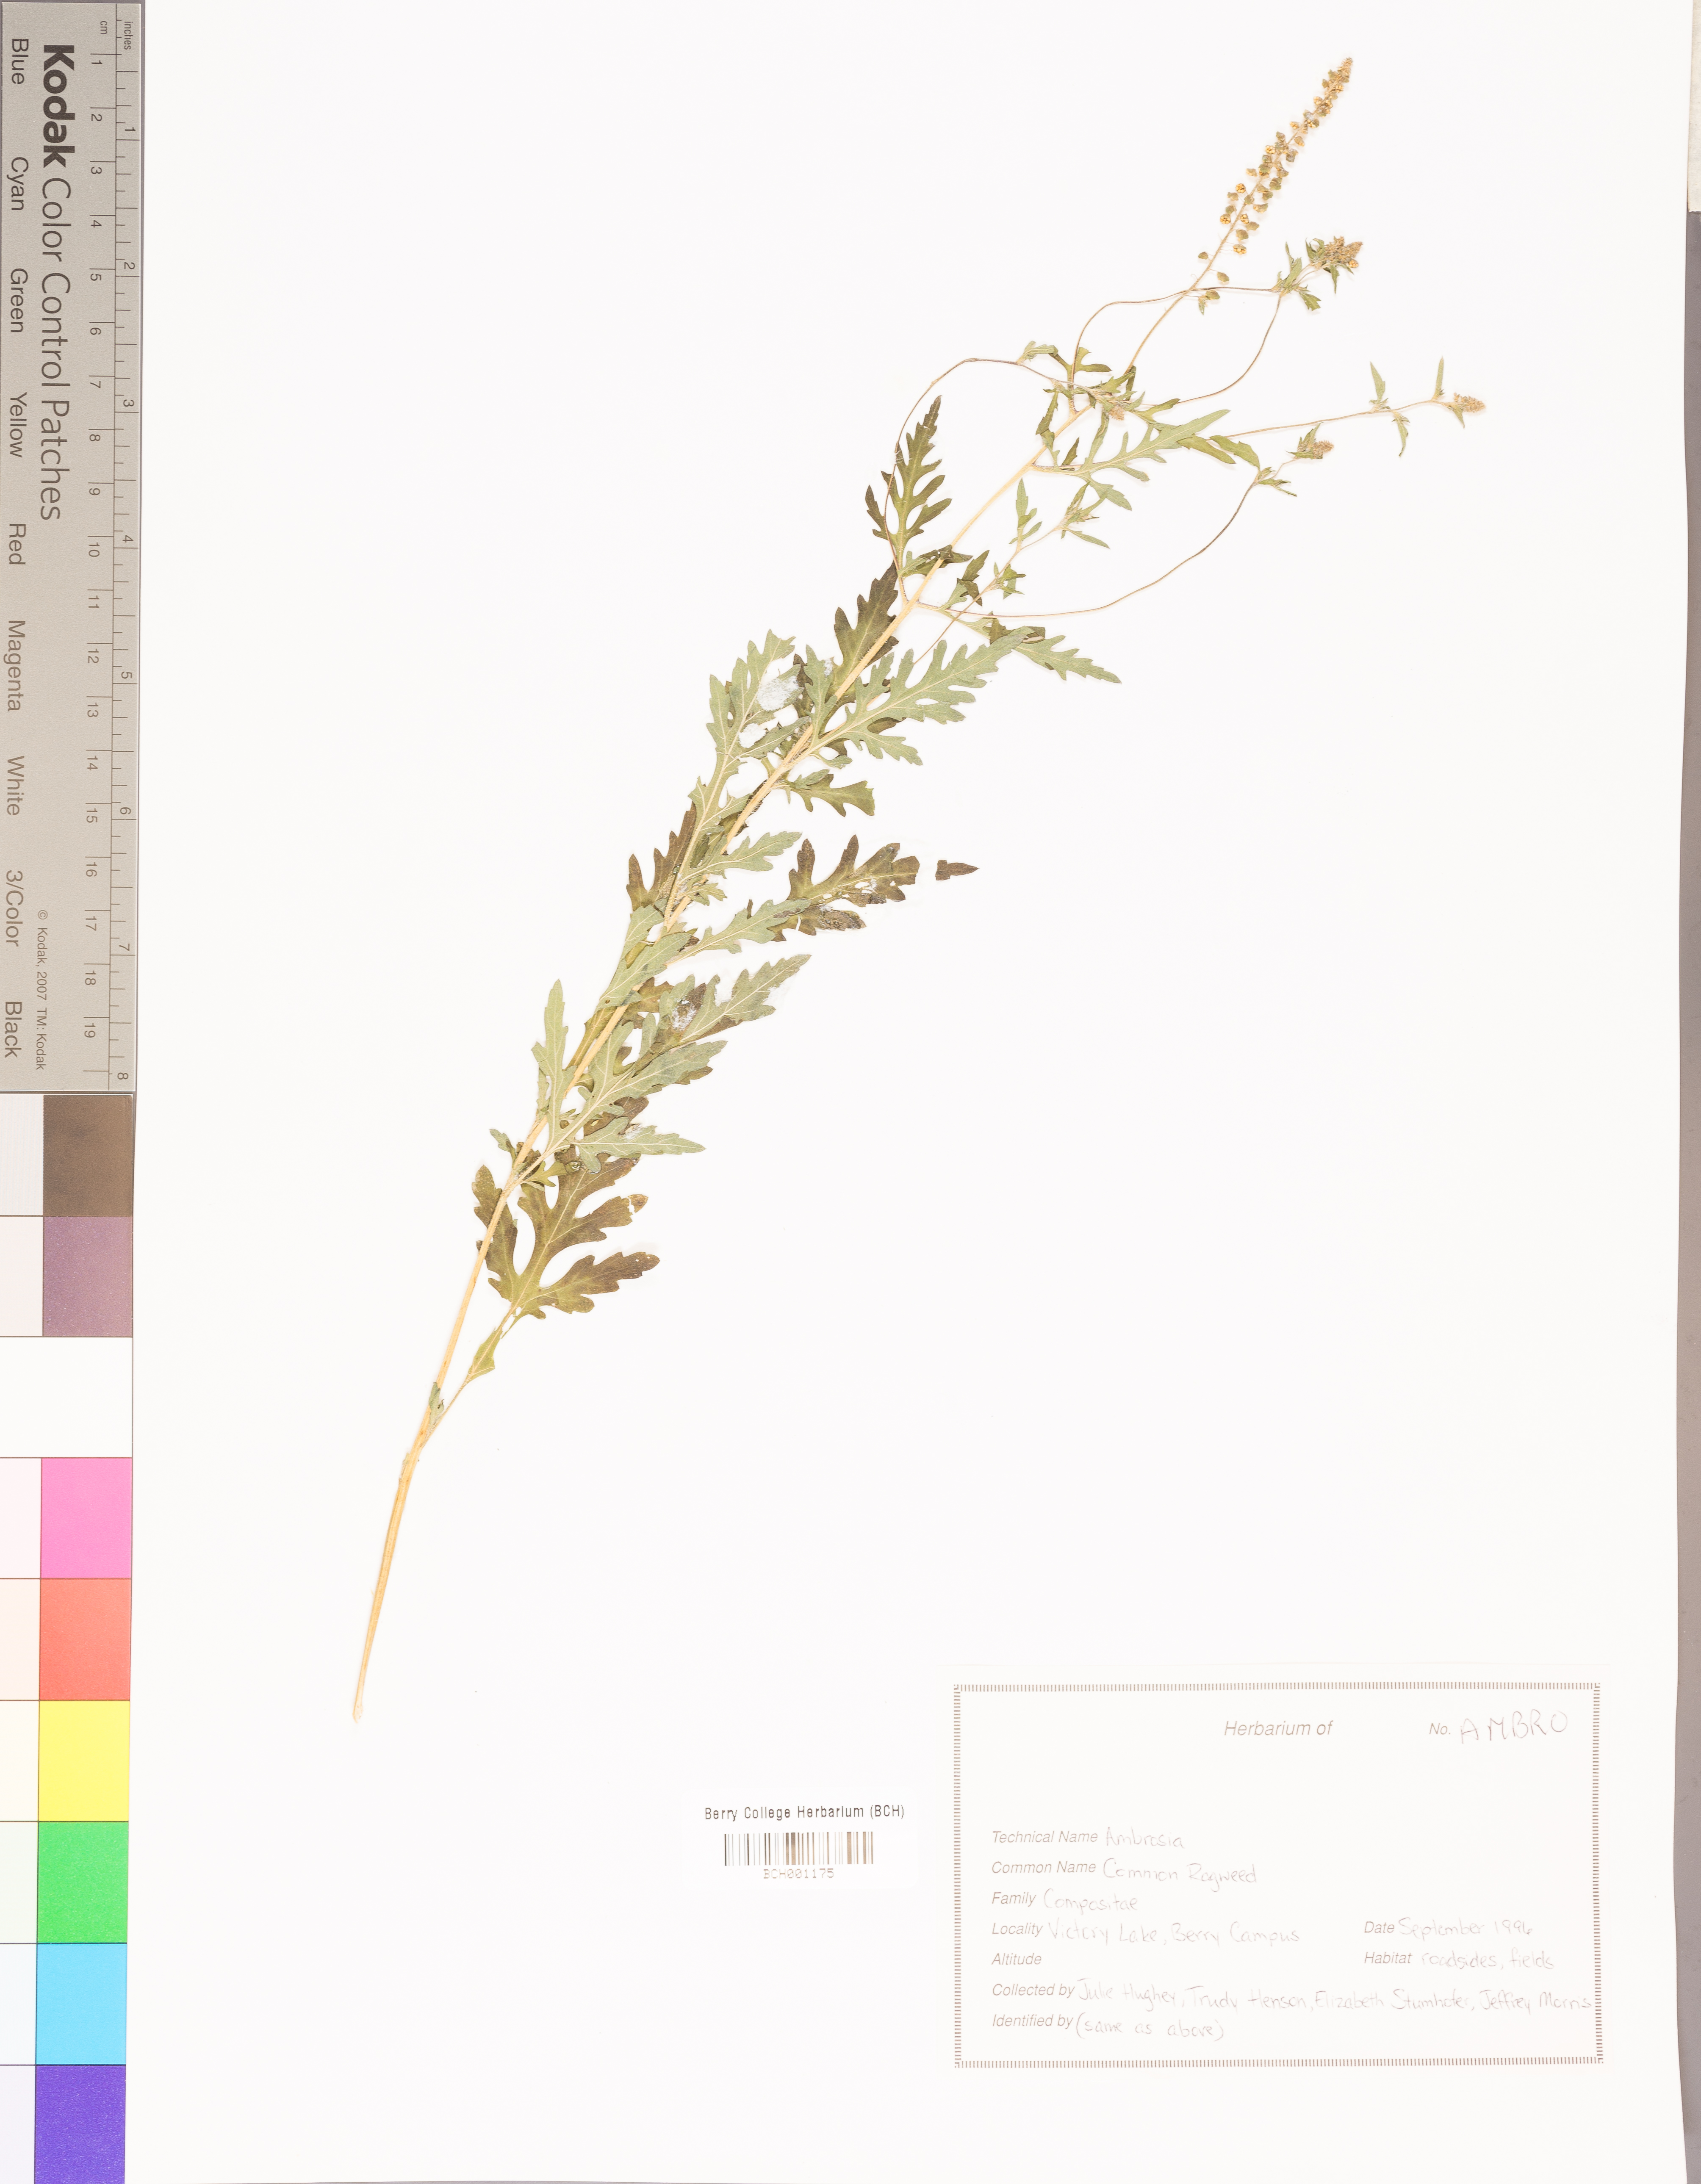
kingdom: Plantae
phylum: Tracheophyta
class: Magnoliopsida
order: Asterales
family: Asteraceae
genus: Ambrosia
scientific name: Ambrosia
